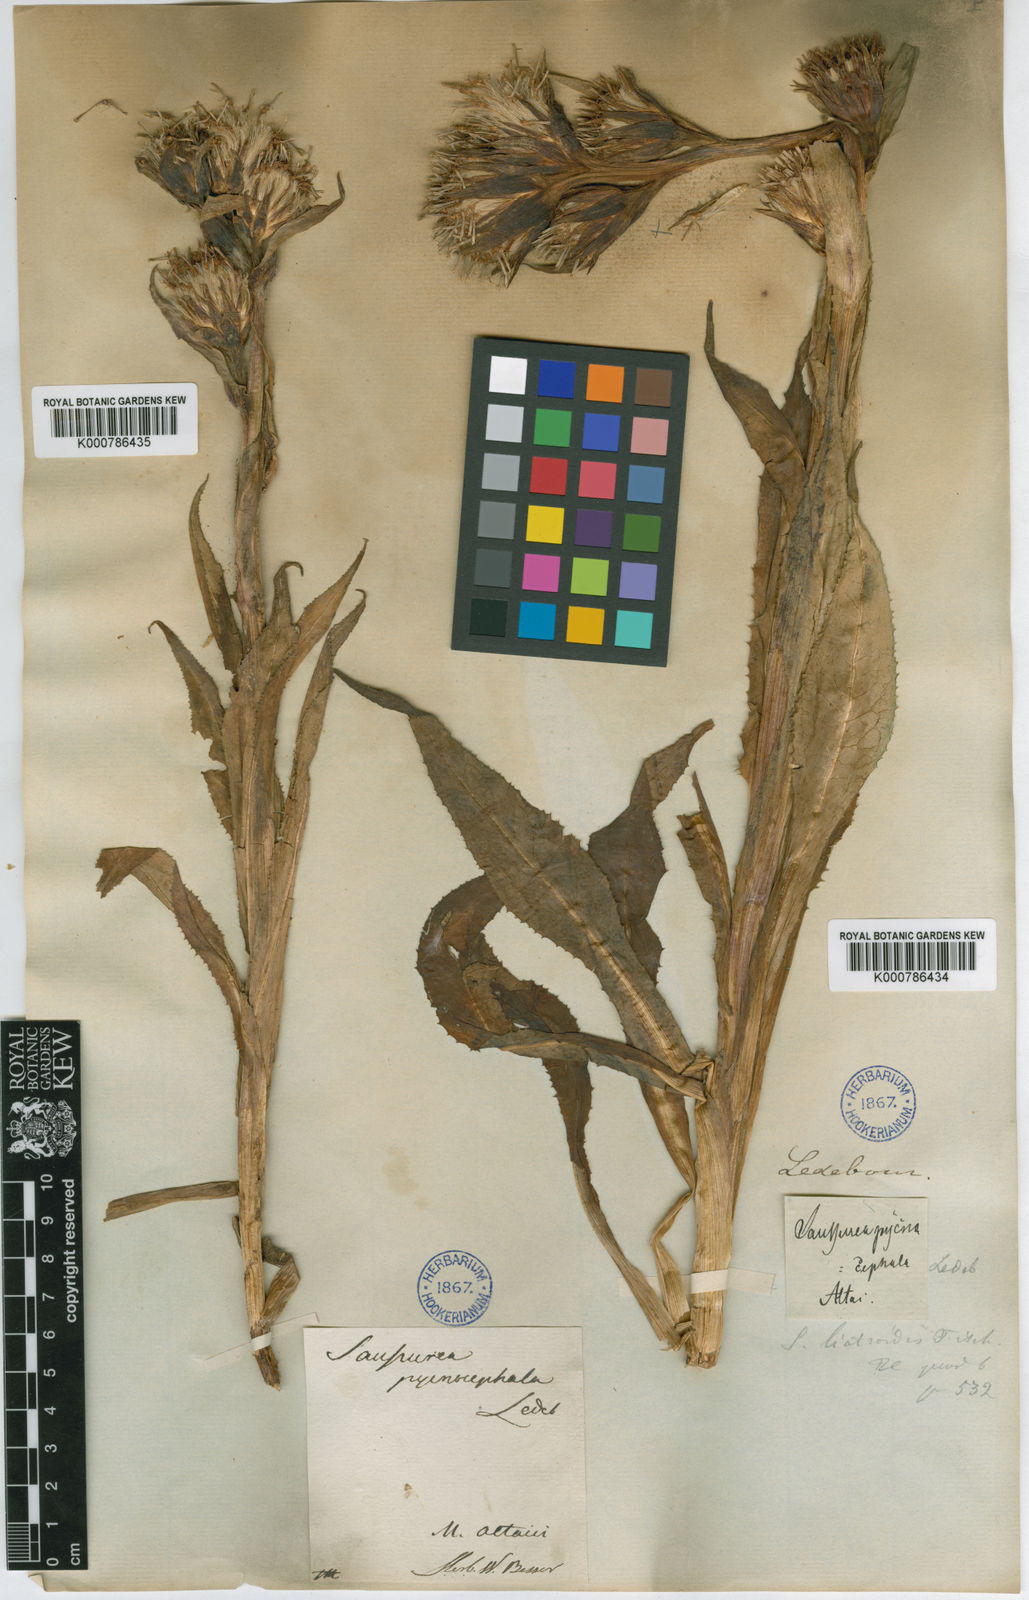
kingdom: Plantae
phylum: Tracheophyta
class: Magnoliopsida
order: Asterales
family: Asteraceae
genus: Saussurea
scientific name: Saussurea
